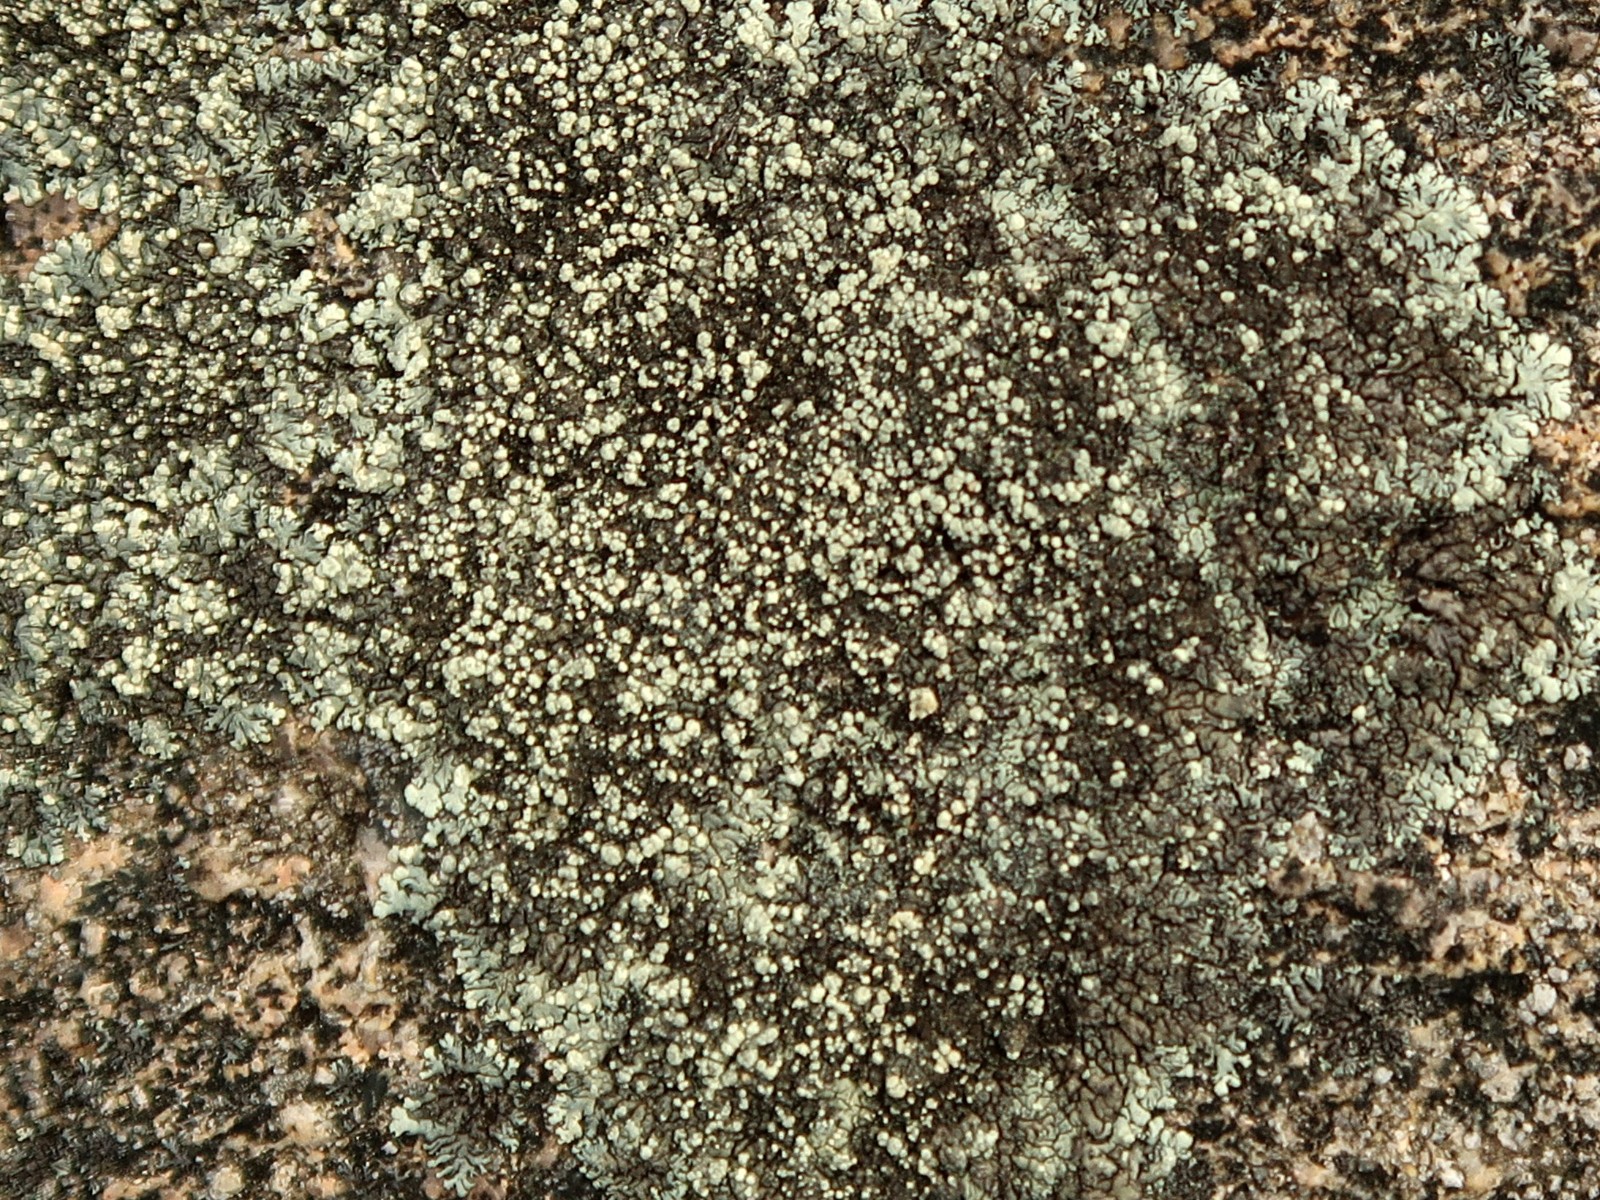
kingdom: Fungi
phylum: Ascomycota
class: Lecanoromycetes
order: Lecanorales
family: Parmeliaceae
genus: Xanthoparmelia
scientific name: Xanthoparmelia mougeotii
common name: liden skållav
